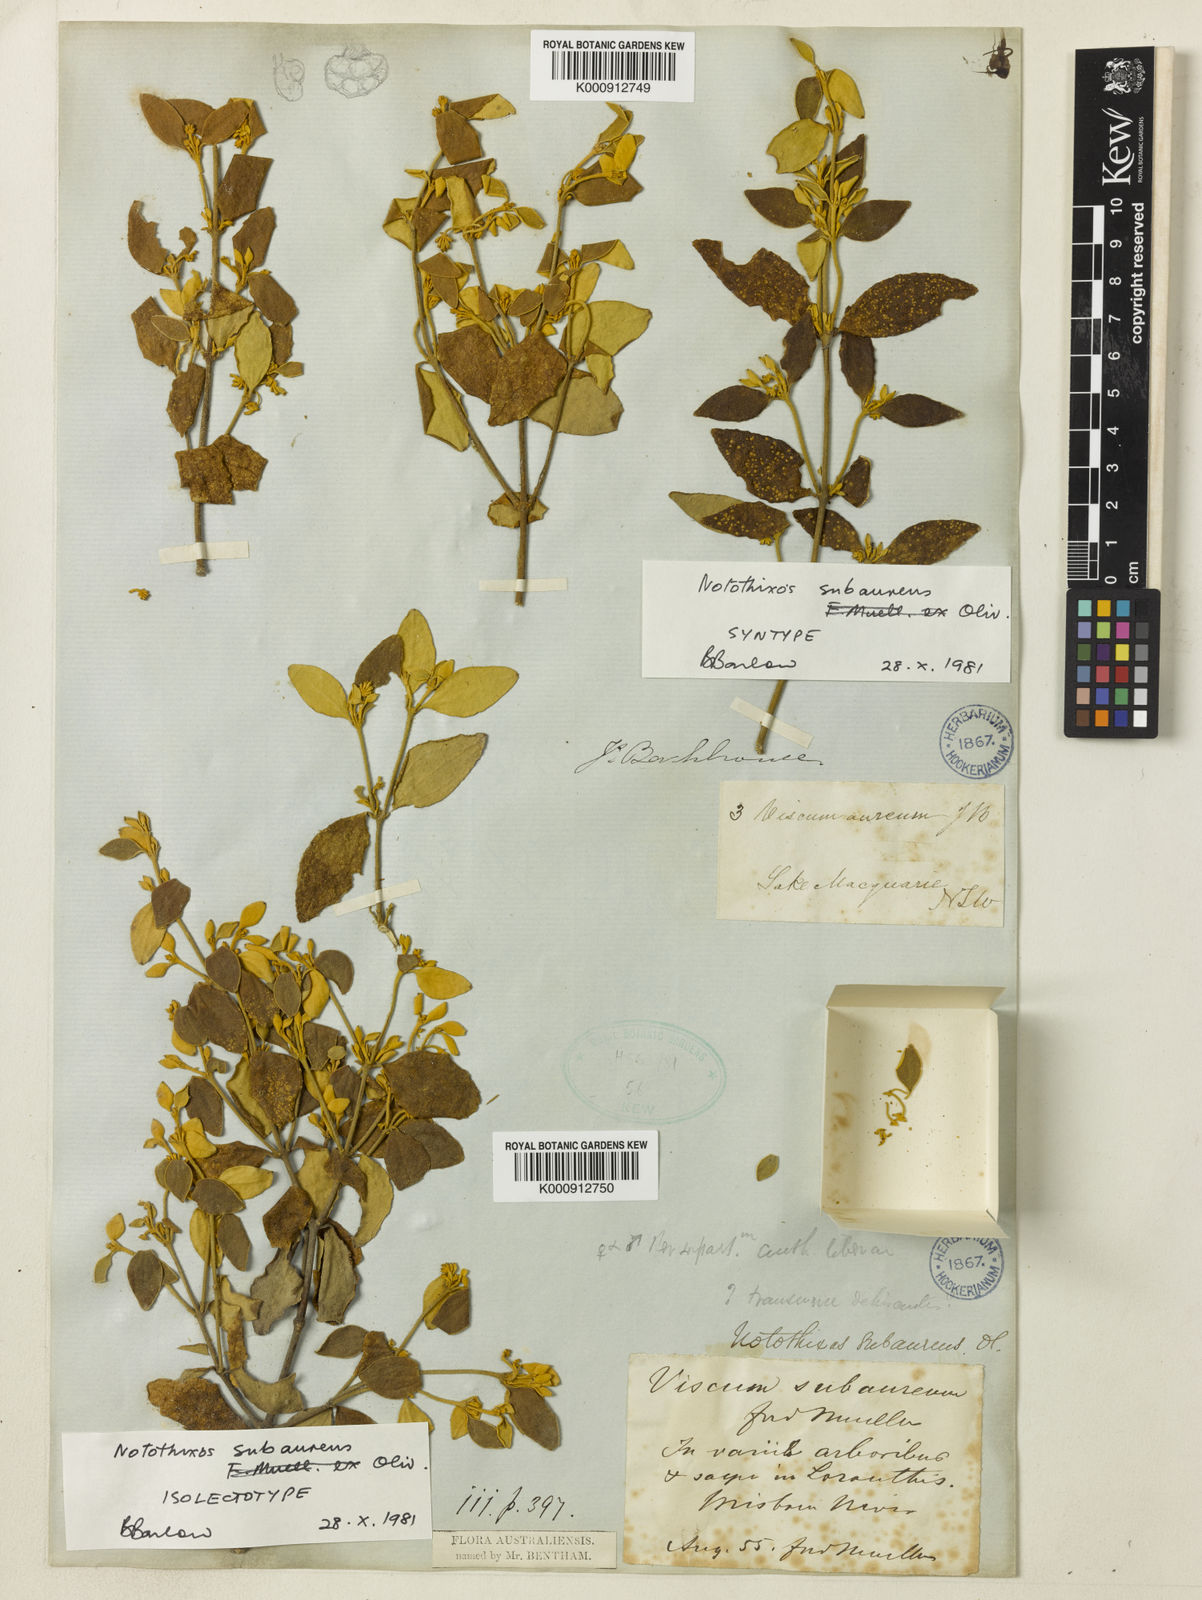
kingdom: Plantae
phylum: Tracheophyta
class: Magnoliopsida
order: Santalales
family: Viscaceae
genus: Notothixos
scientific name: Notothixos subaureus
